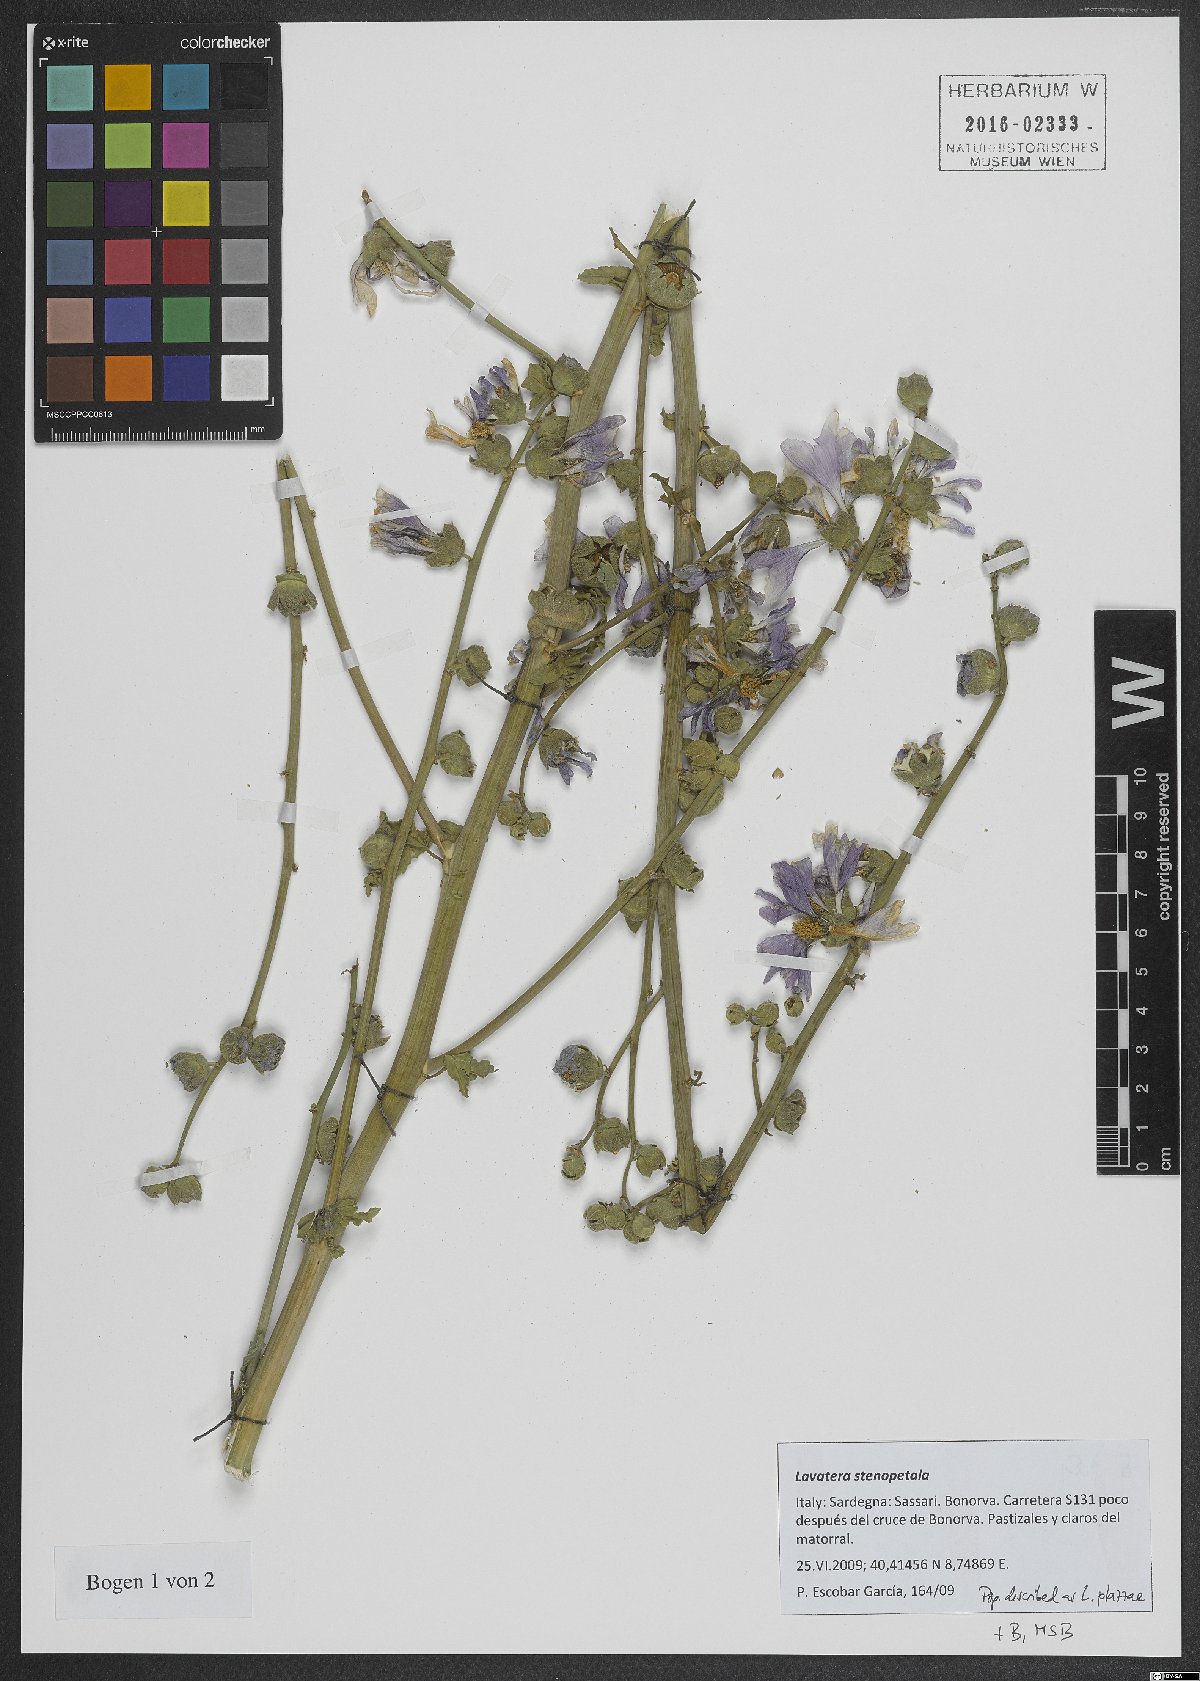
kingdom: Plantae
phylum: Tracheophyta
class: Magnoliopsida
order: Malvales
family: Malvaceae
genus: Malva
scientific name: Malva stenopetala
